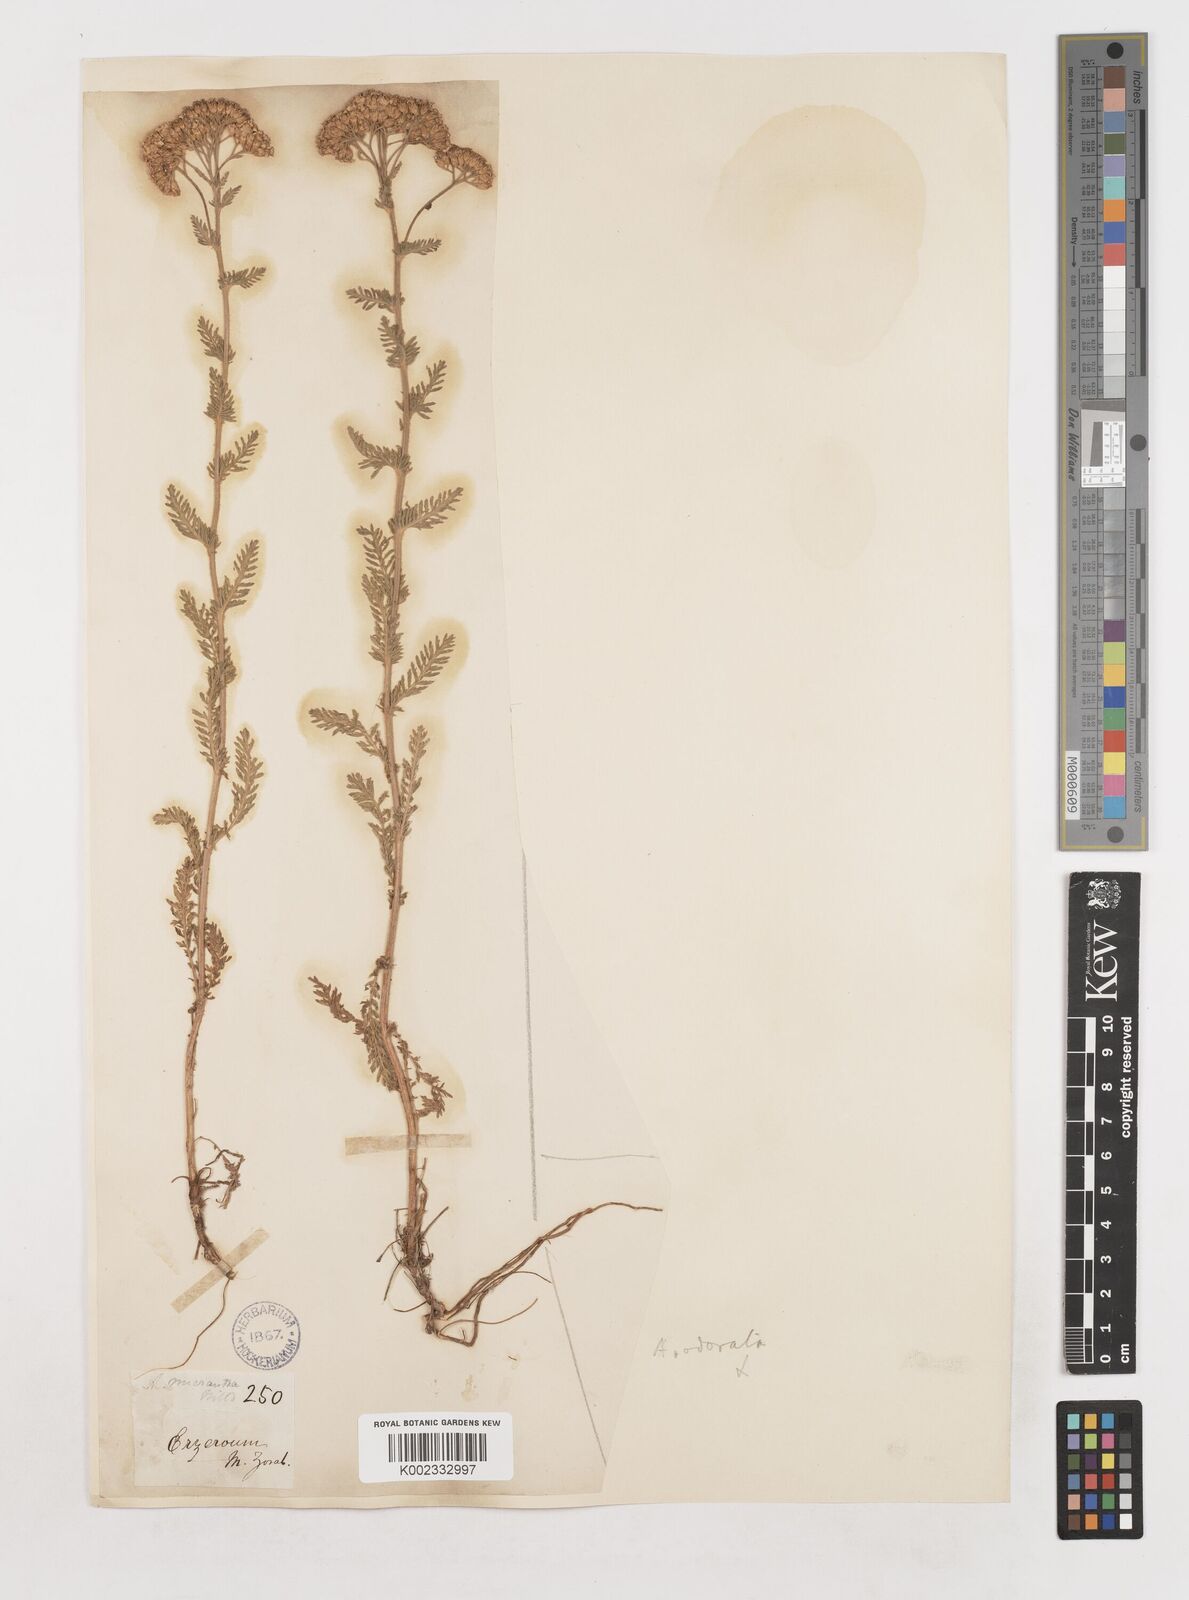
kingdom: Plantae
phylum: Tracheophyta
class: Magnoliopsida
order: Asterales
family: Asteraceae
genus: Achillea
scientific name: Achillea
